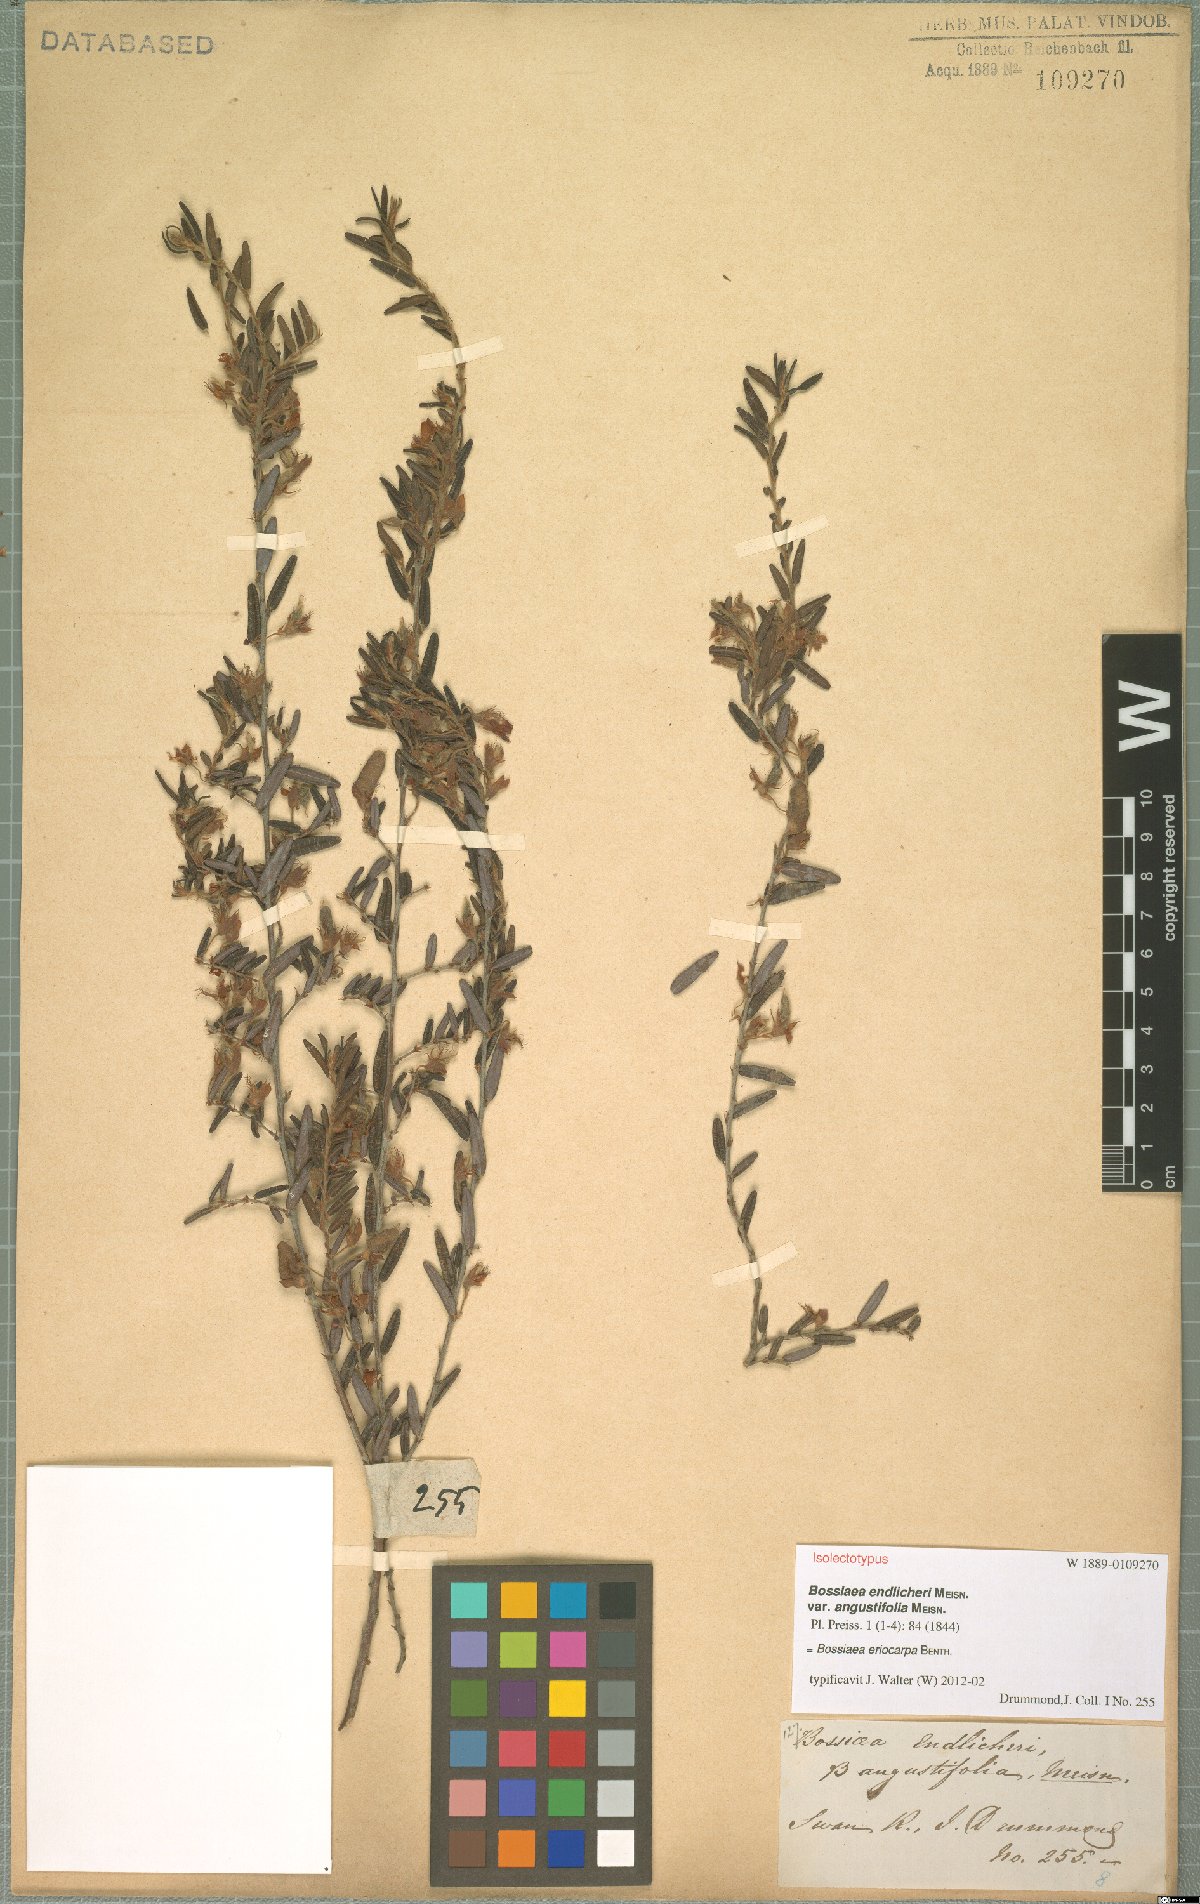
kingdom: Plantae
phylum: Tracheophyta
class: Magnoliopsida
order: Fabales
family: Fabaceae
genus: Bossiaea
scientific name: Bossiaea eriocarpa
